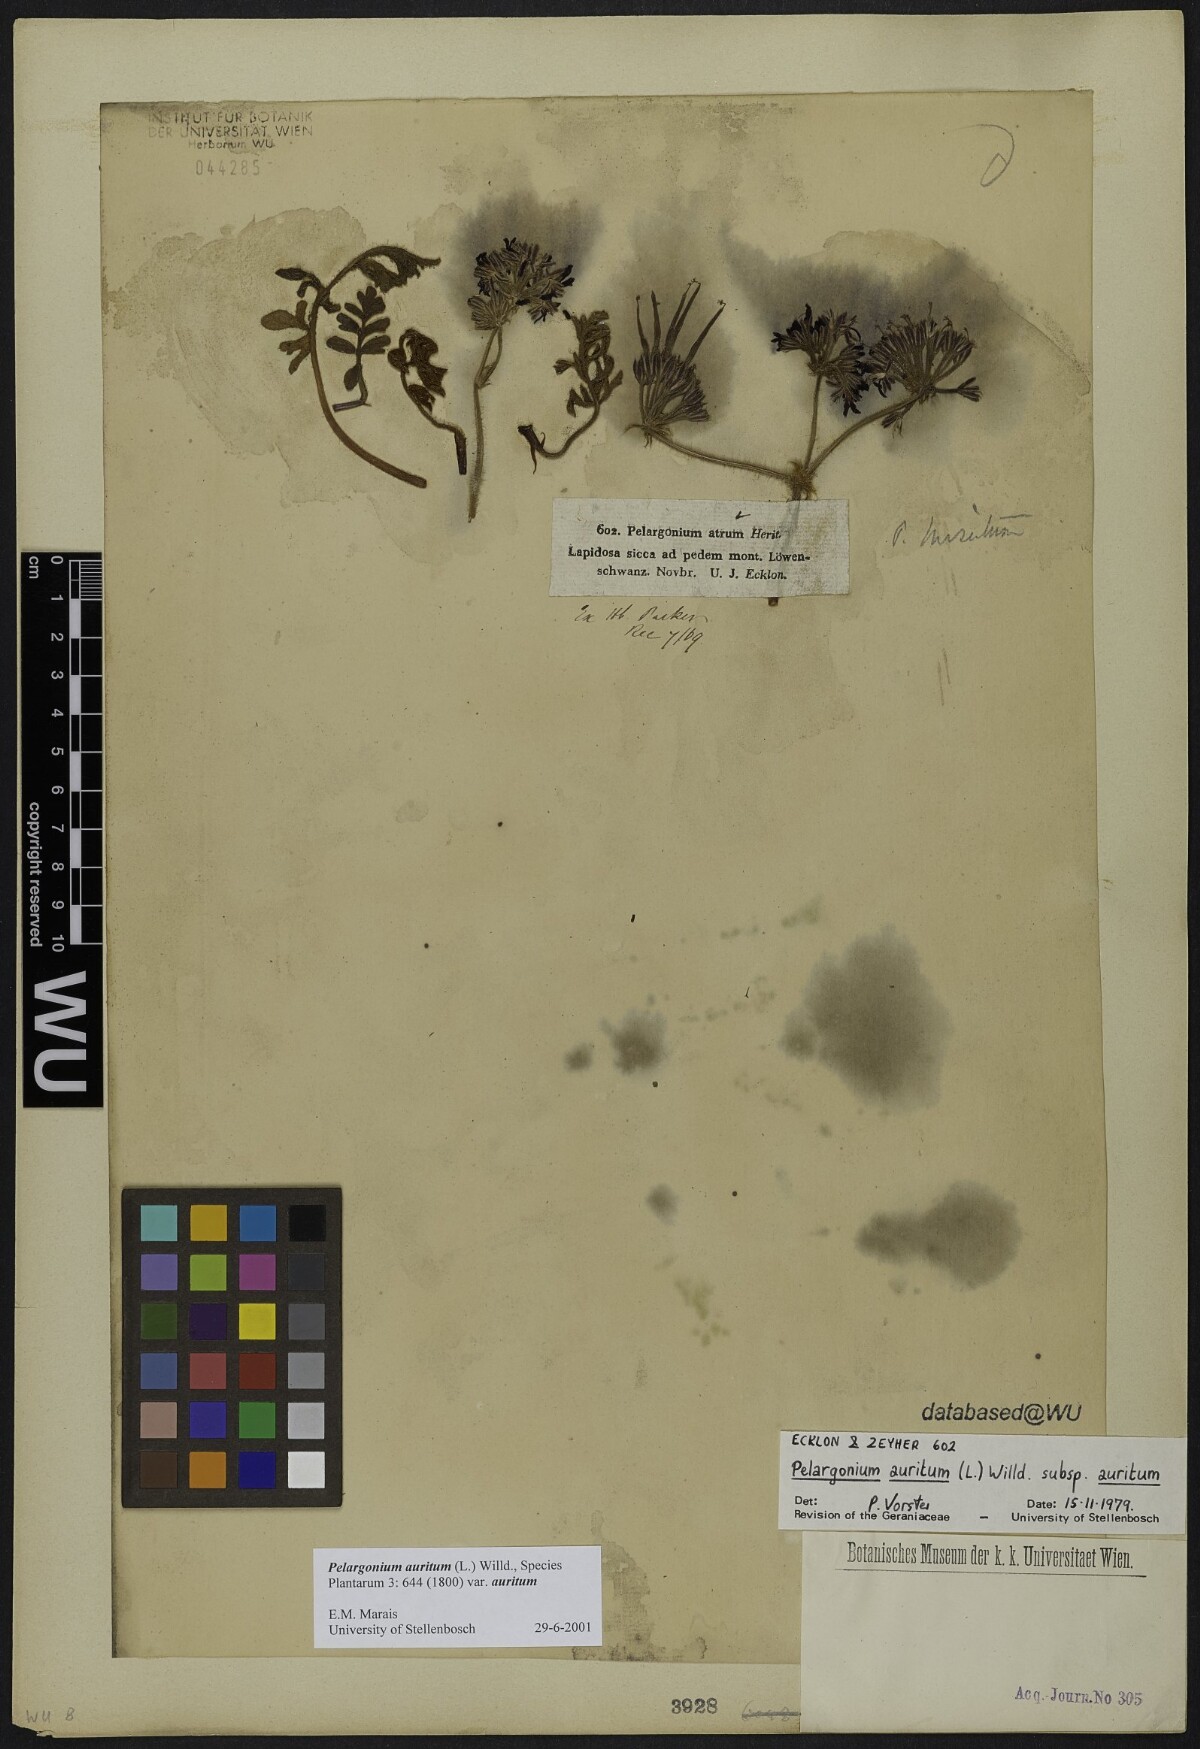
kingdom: Plantae
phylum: Tracheophyta
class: Magnoliopsida
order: Geraniales
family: Geraniaceae
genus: Pelargonium
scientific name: Pelargonium auritum
